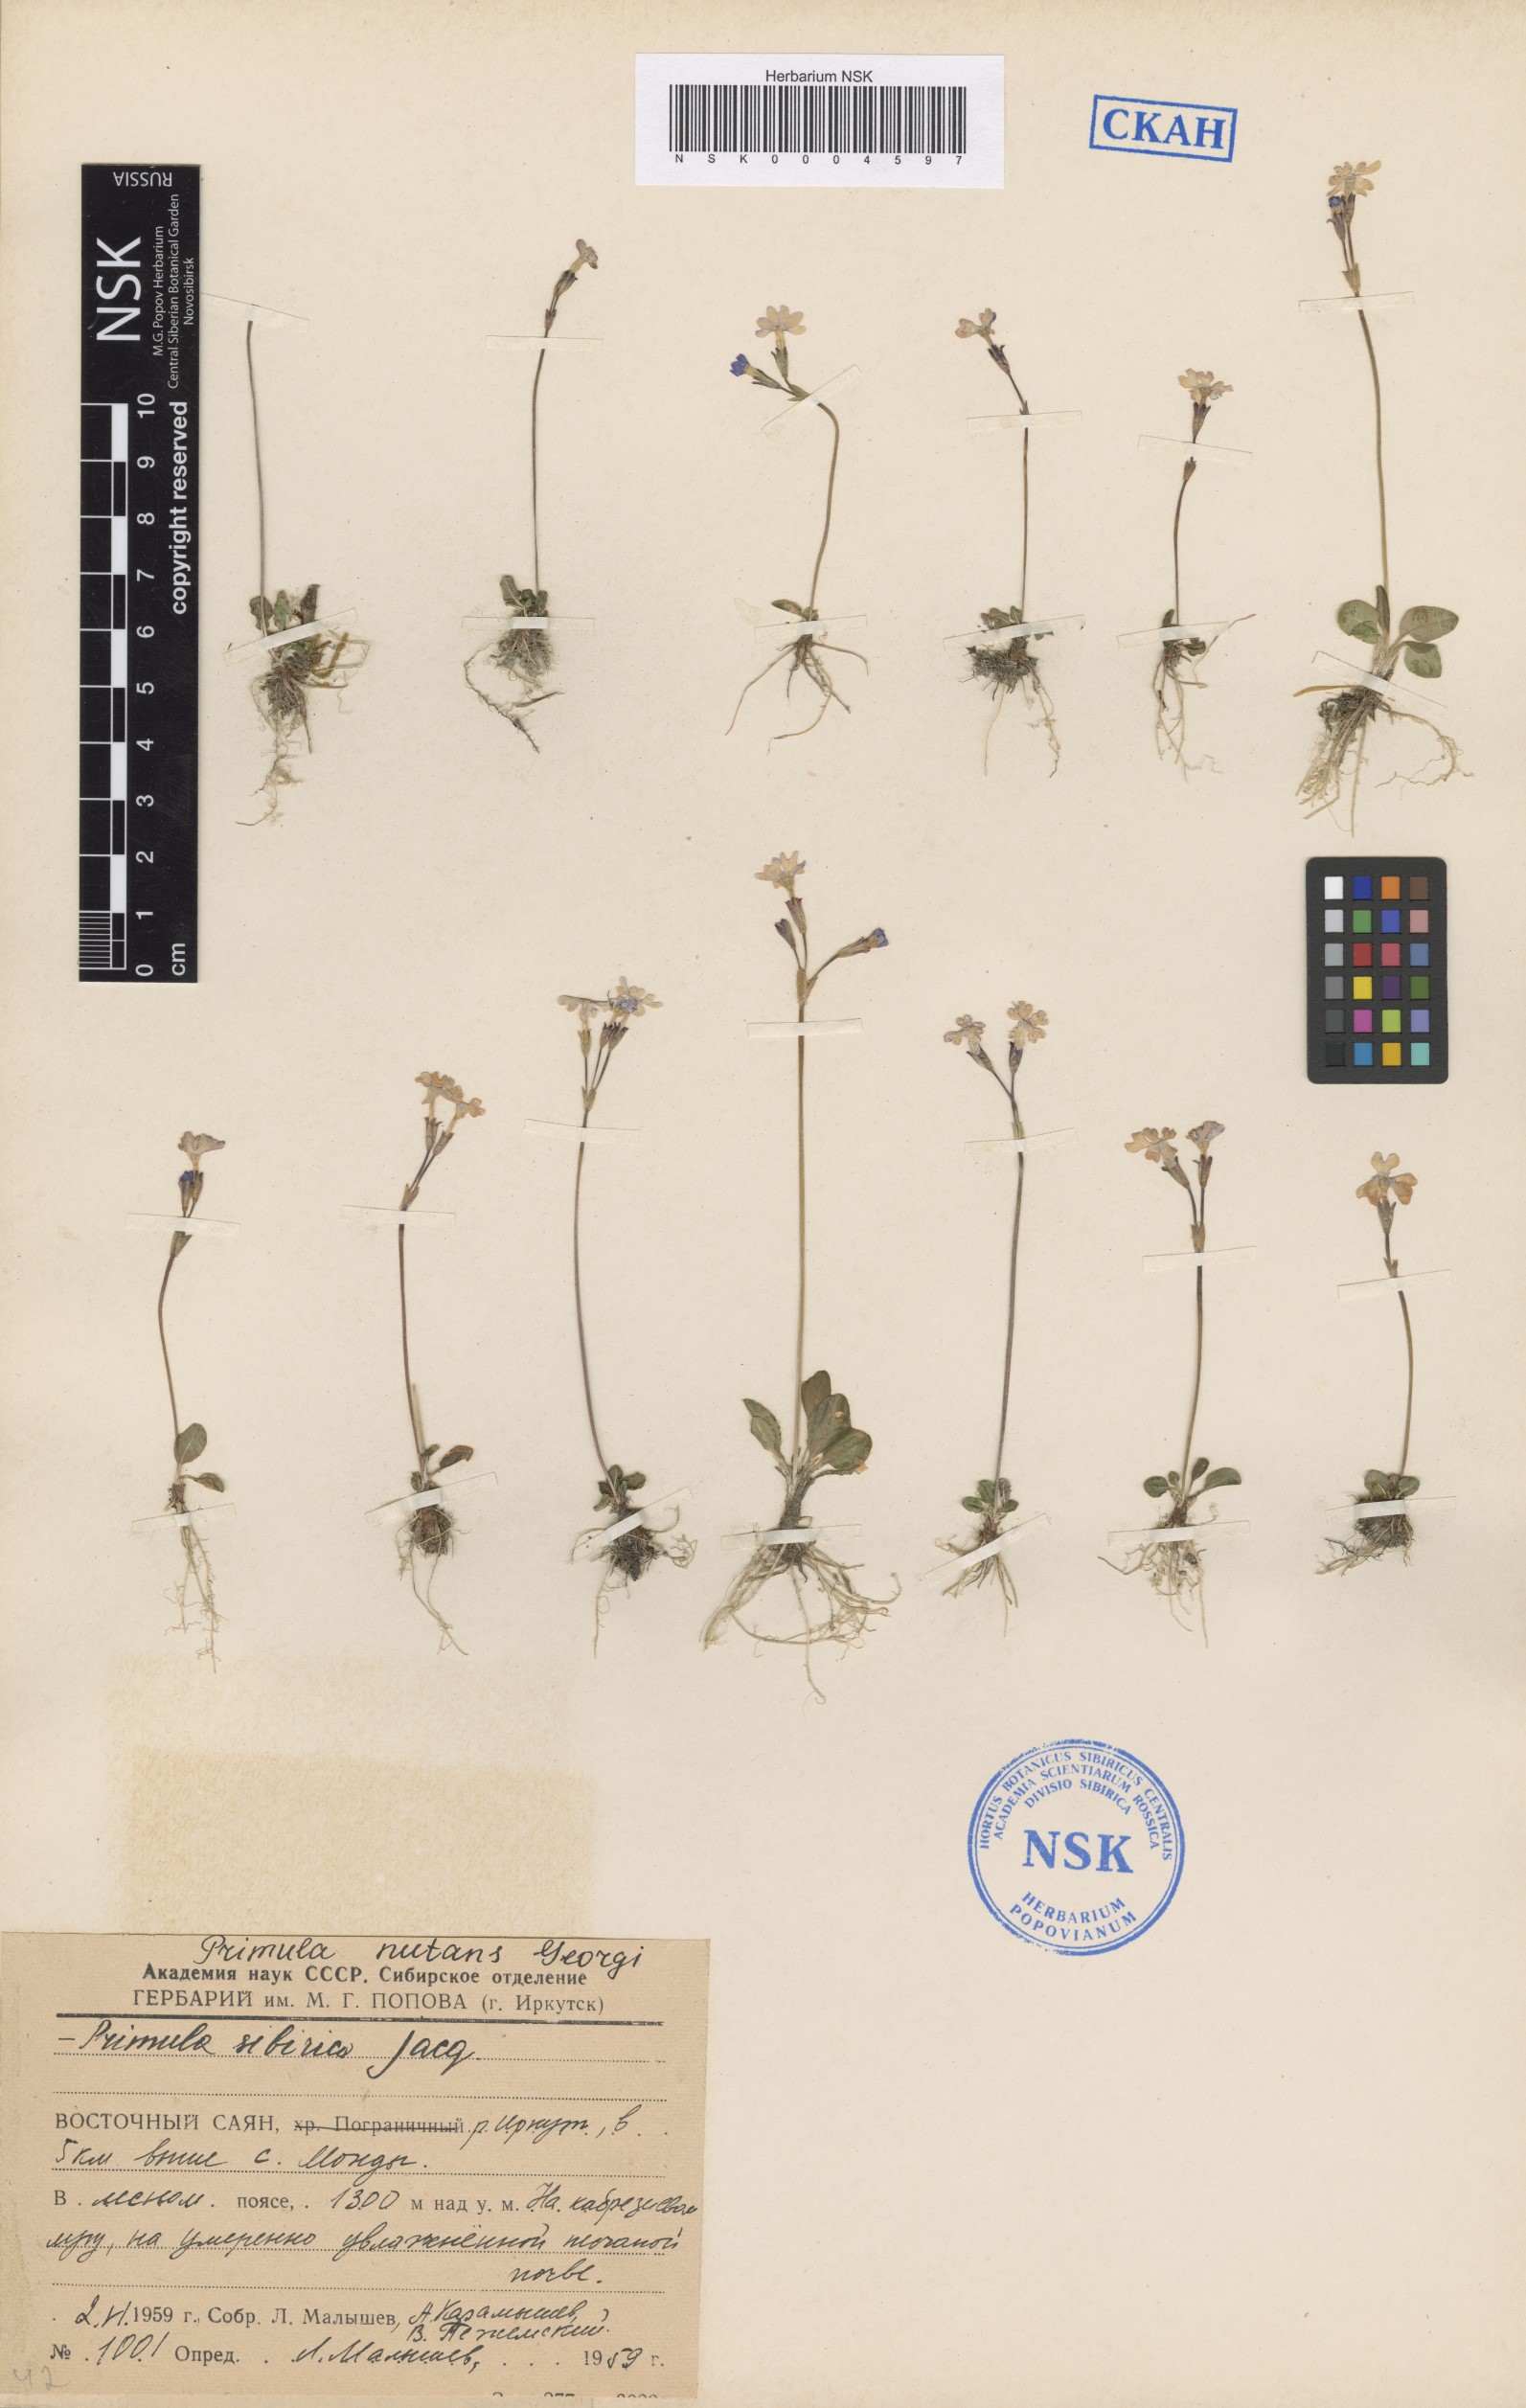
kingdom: Plantae
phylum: Tracheophyta
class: Magnoliopsida
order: Ericales
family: Primulaceae
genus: Primula
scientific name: Primula nutans
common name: Siberian primrose
